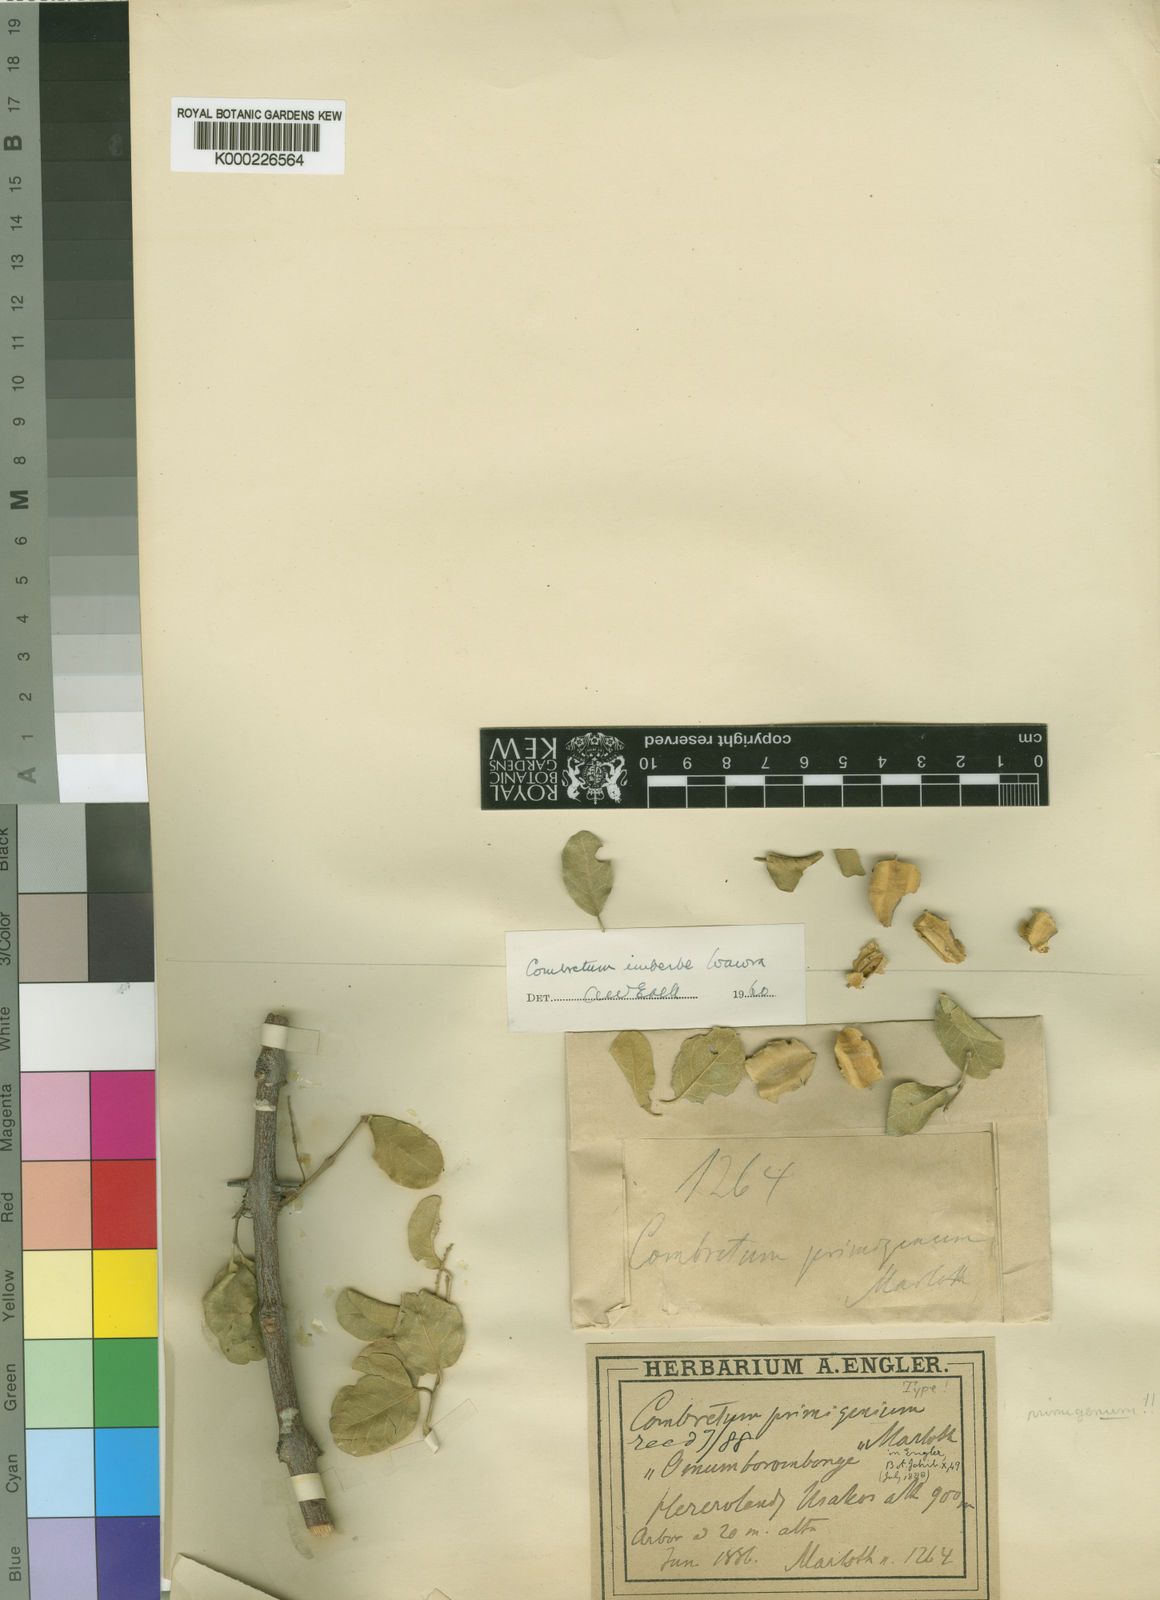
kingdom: Plantae
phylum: Tracheophyta
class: Magnoliopsida
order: Myrtales
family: Combretaceae
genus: Combretum
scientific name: Combretum imberbe
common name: Leadwood
